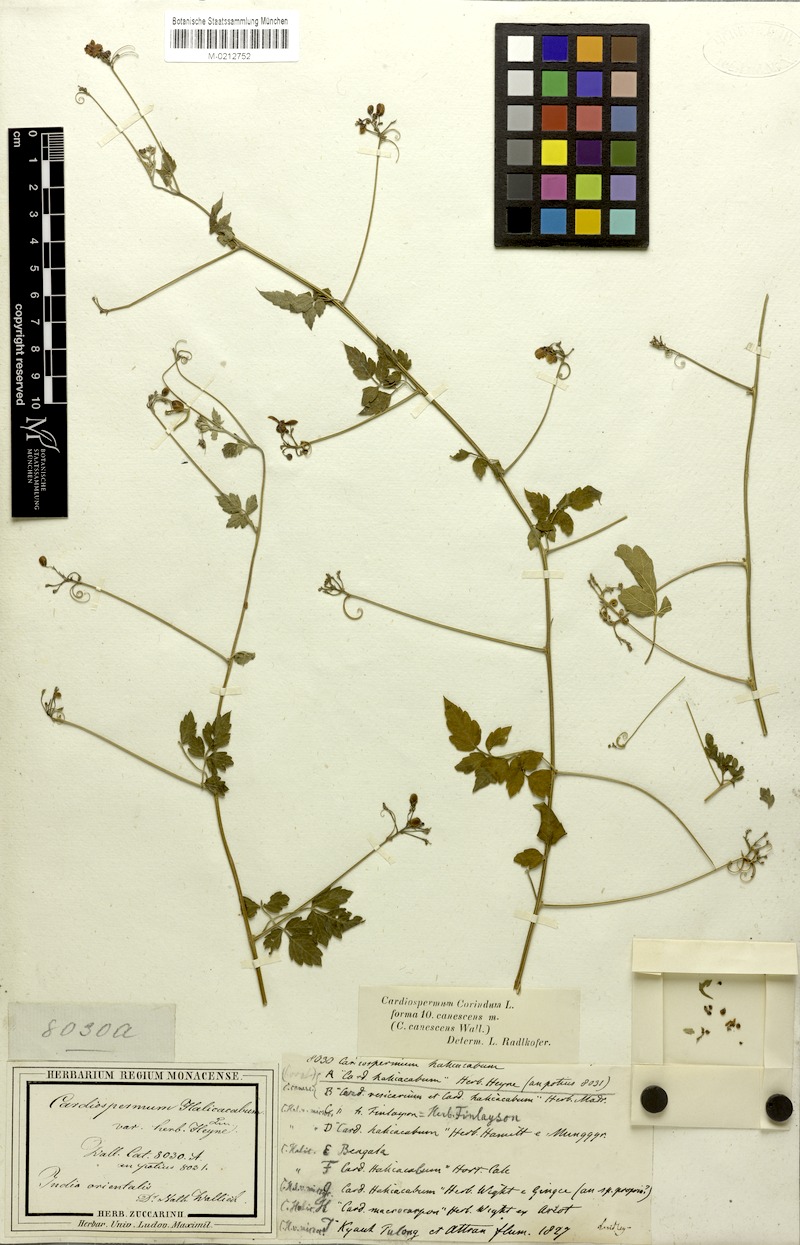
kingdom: Plantae
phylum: Tracheophyta
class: Magnoliopsida
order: Sapindales
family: Sapindaceae
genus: Cardiospermum
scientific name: Cardiospermum corindum
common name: Faux persil
